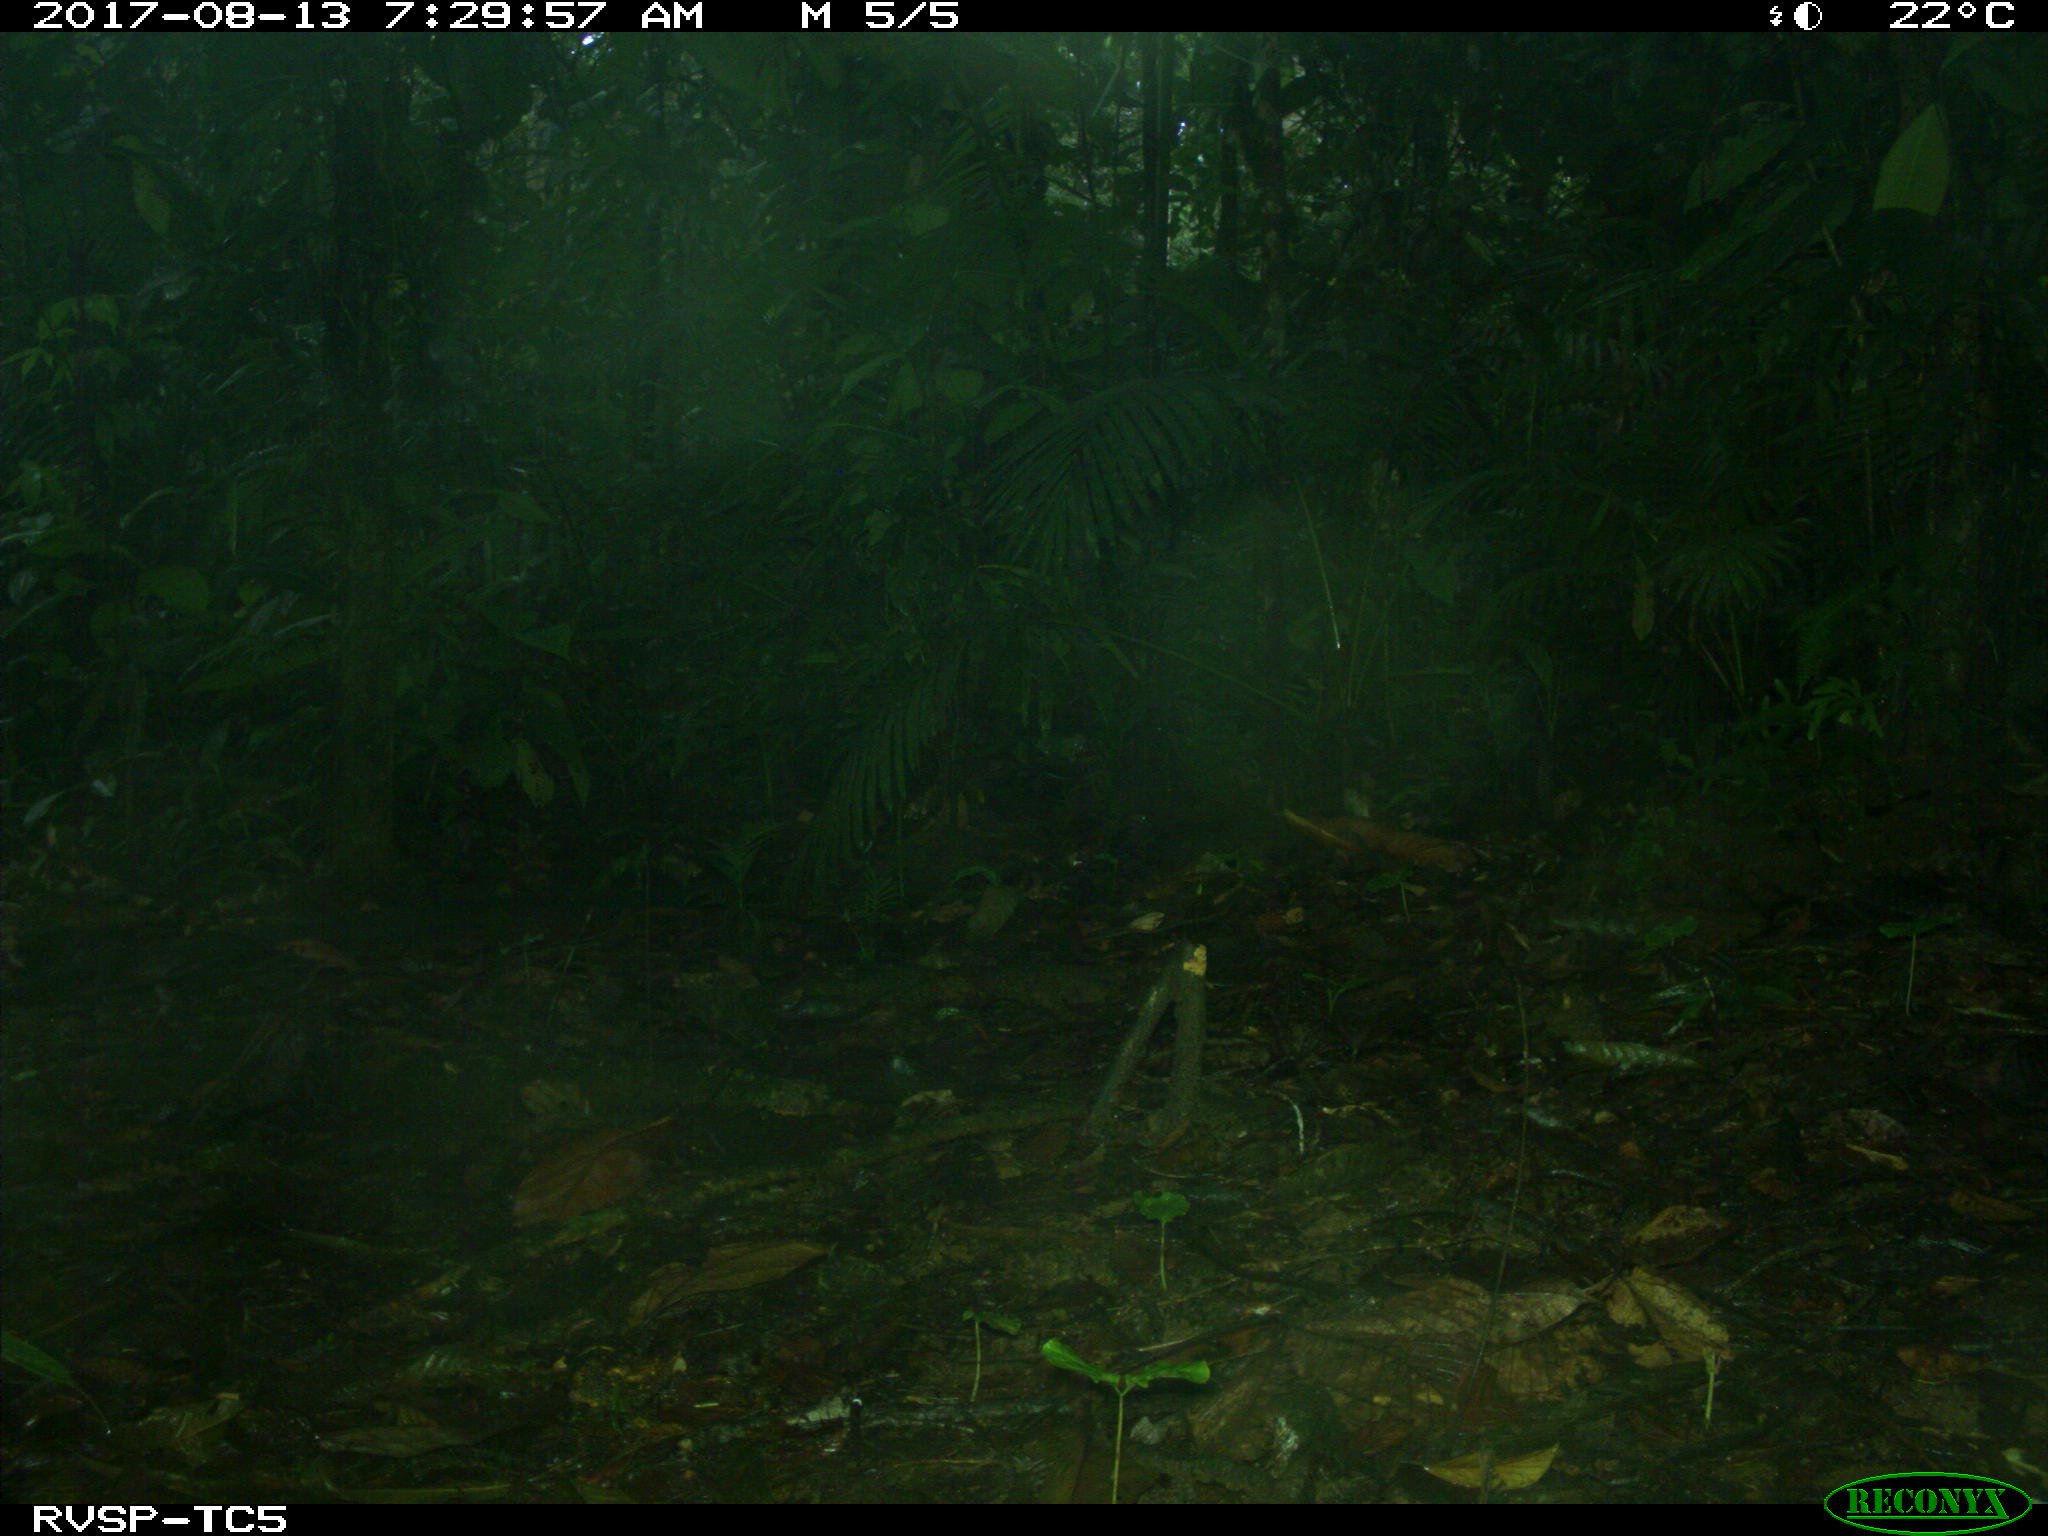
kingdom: Animalia
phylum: Chordata
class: Mammalia
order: Rodentia
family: Dasyproctidae
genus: Dasyprocta
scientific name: Dasyprocta punctata
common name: Central american agouti
